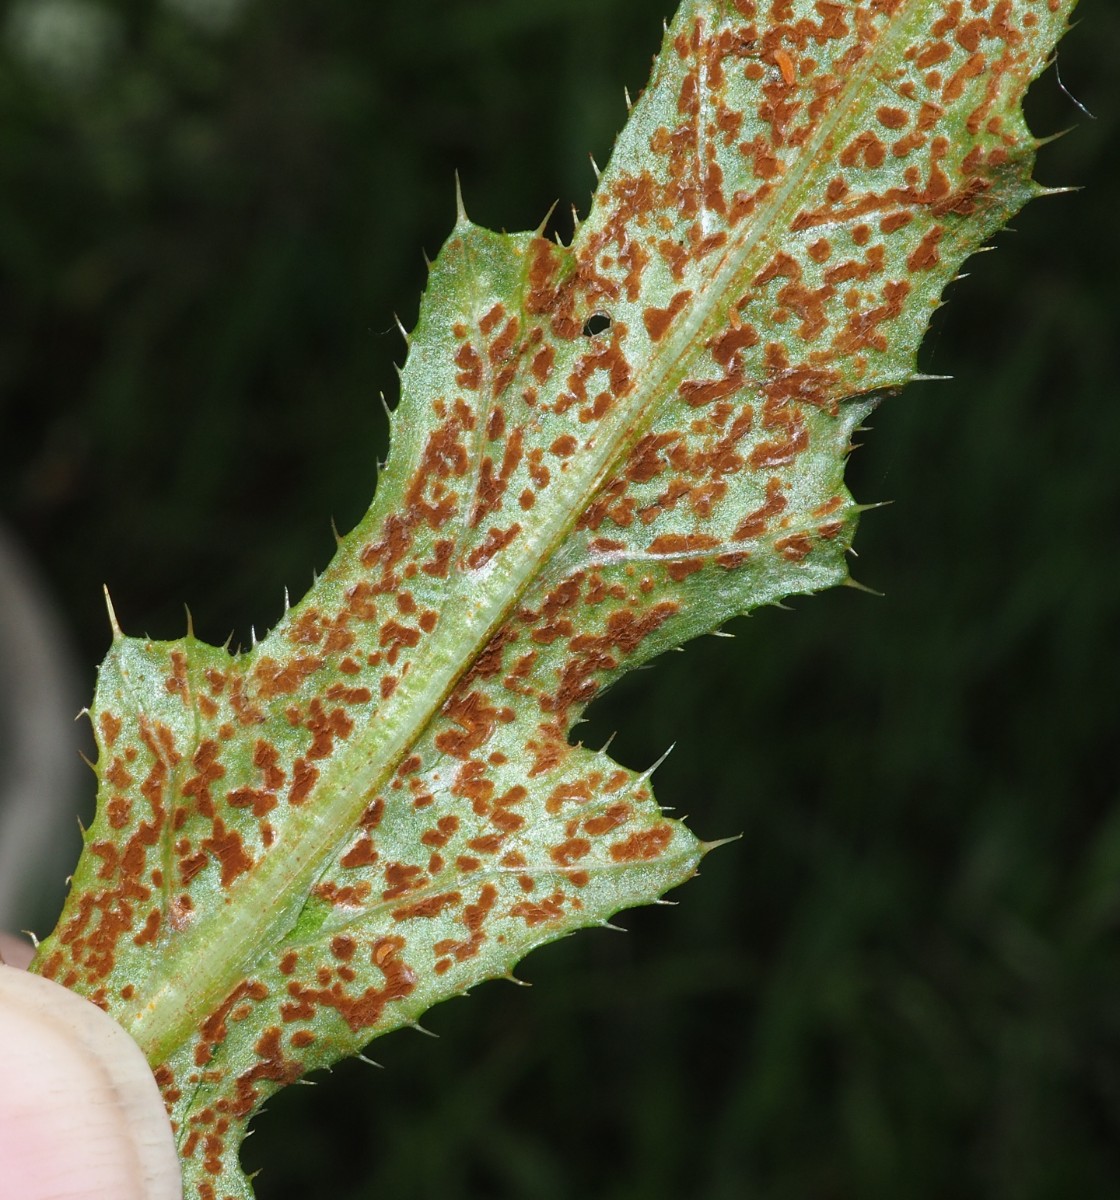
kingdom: Fungi
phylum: Basidiomycota
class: Pucciniomycetes
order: Pucciniales
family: Pucciniaceae
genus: Puccinia
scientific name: Puccinia suaveolens
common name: tidsel-tvecellerust
